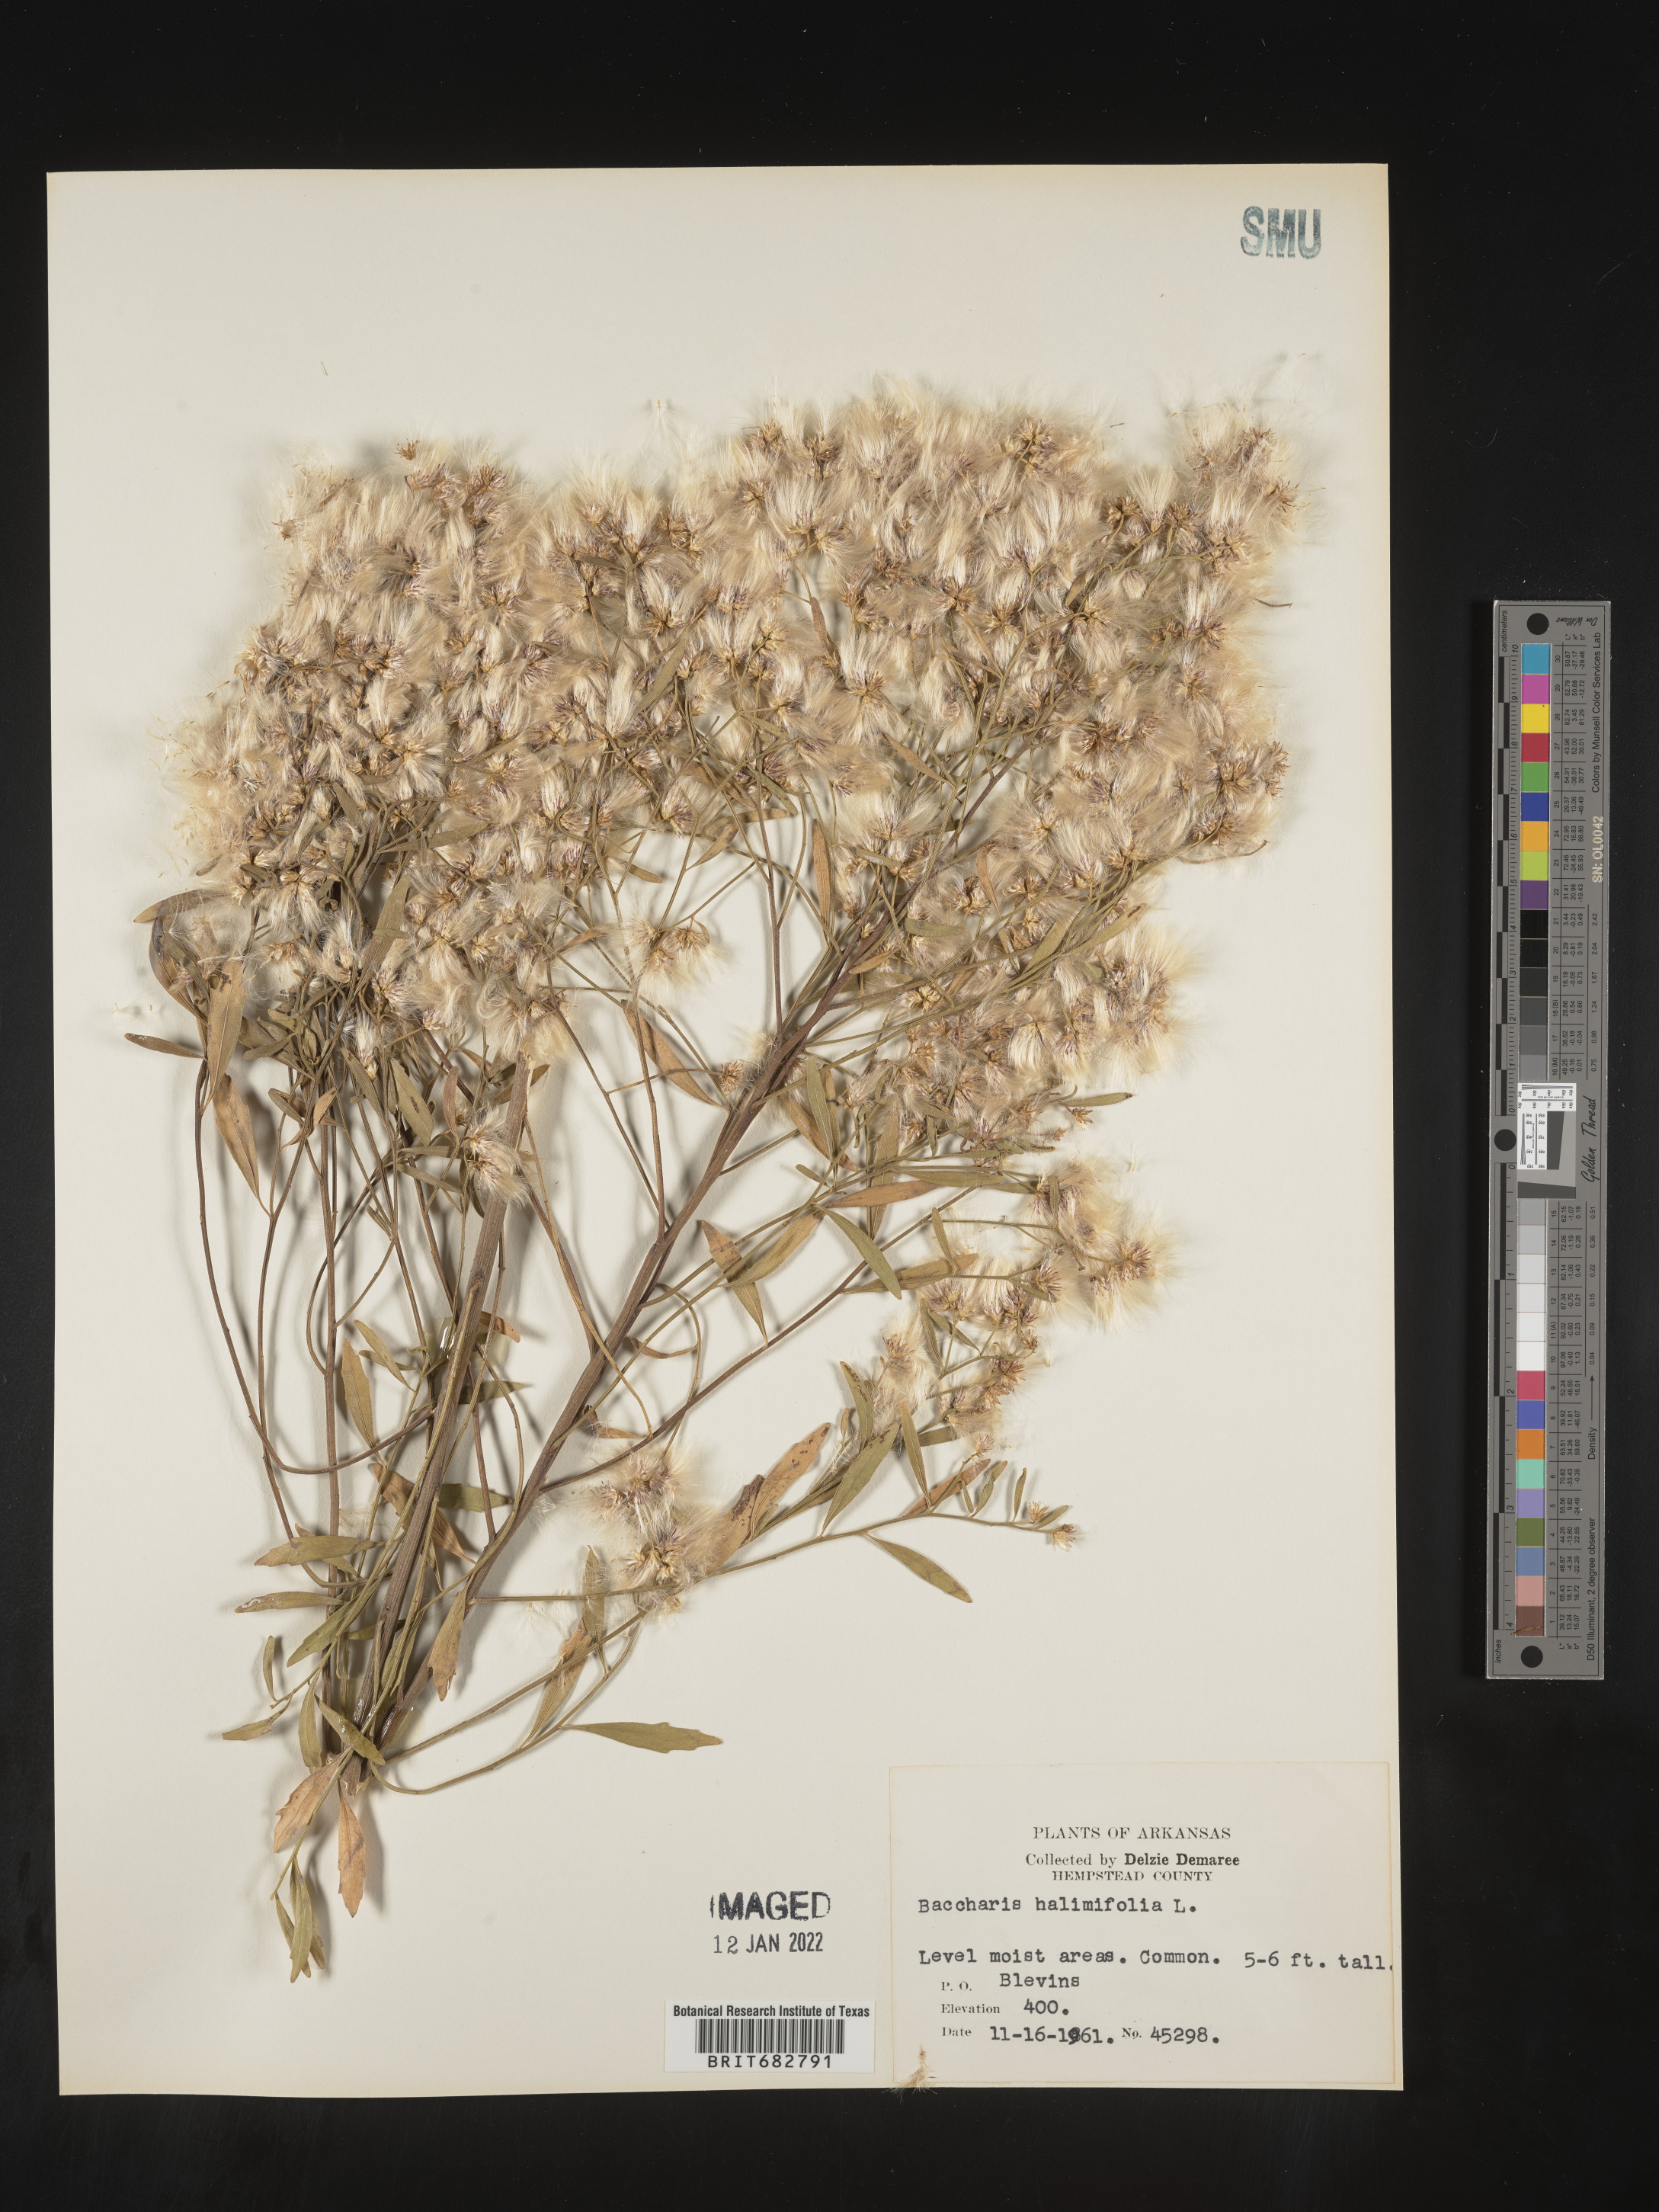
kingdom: Plantae
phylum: Tracheophyta
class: Magnoliopsida
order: Asterales
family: Asteraceae
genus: Nidorella
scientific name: Nidorella ivifolia
